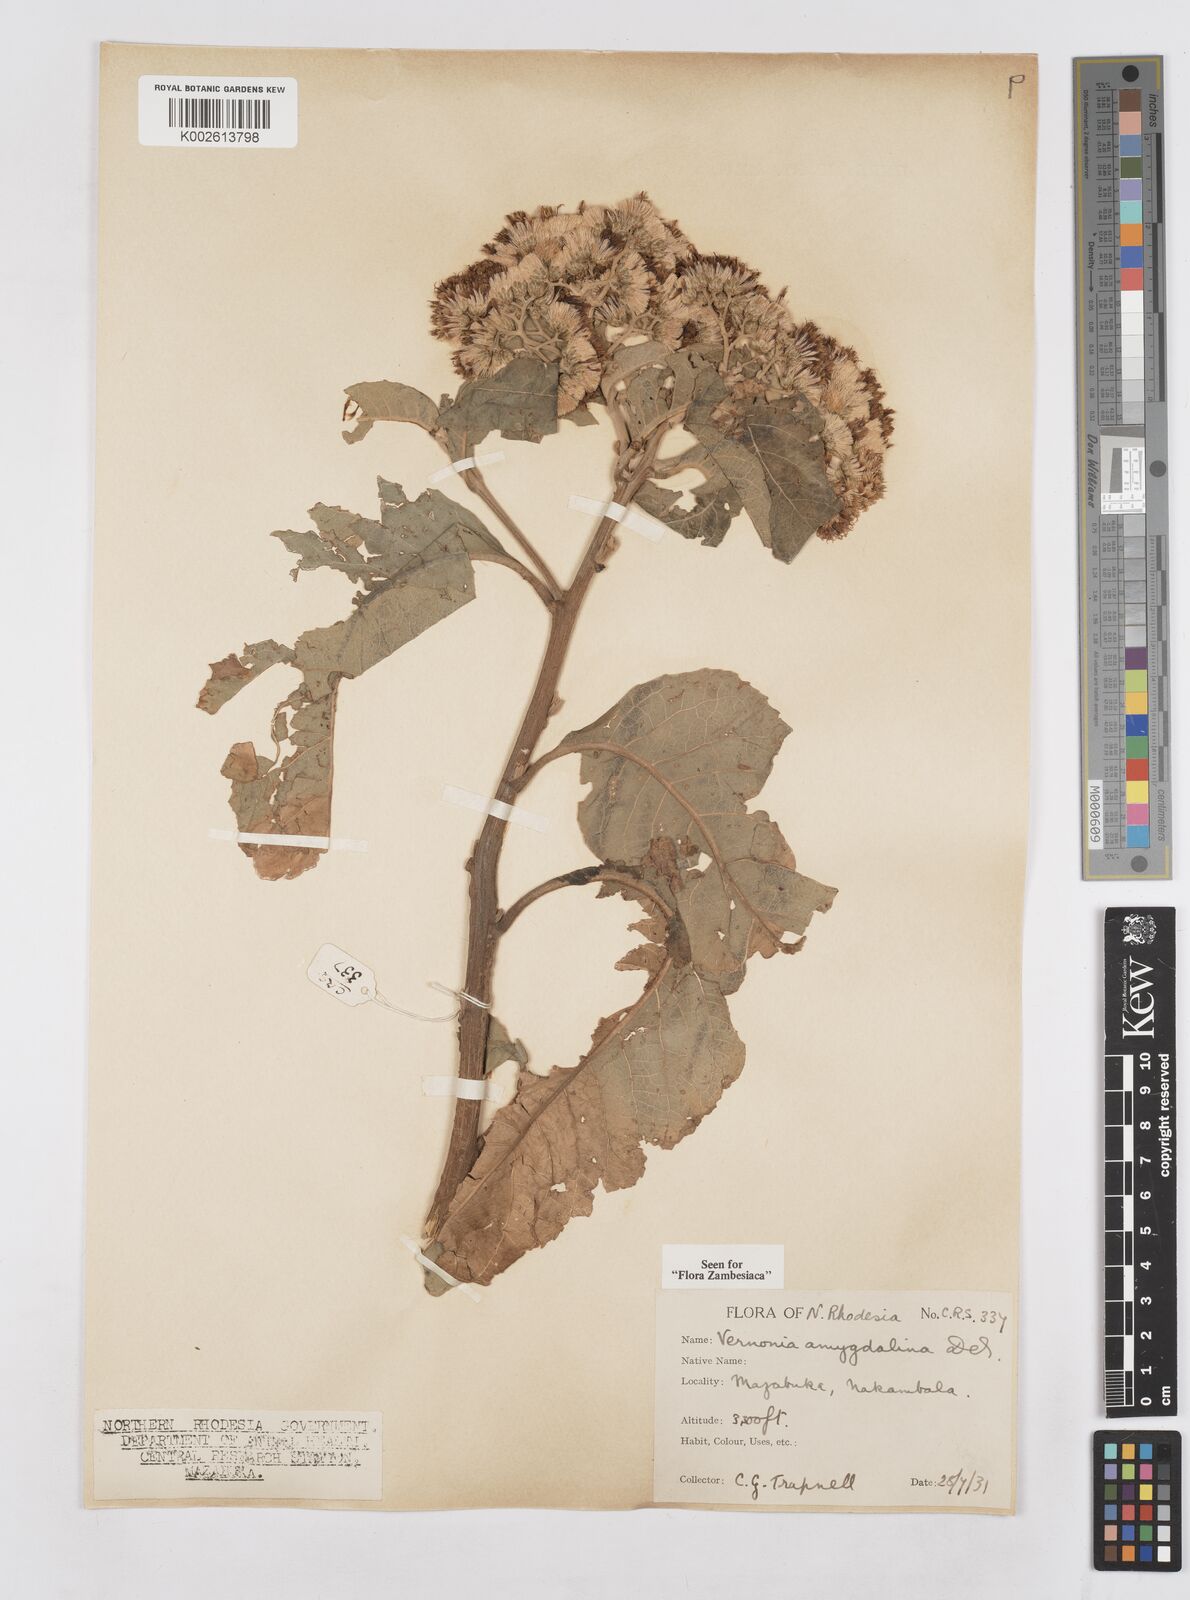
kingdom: Plantae
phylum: Tracheophyta
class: Magnoliopsida
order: Asterales
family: Asteraceae
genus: Gymnanthemum
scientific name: Gymnanthemum amygdalinum
